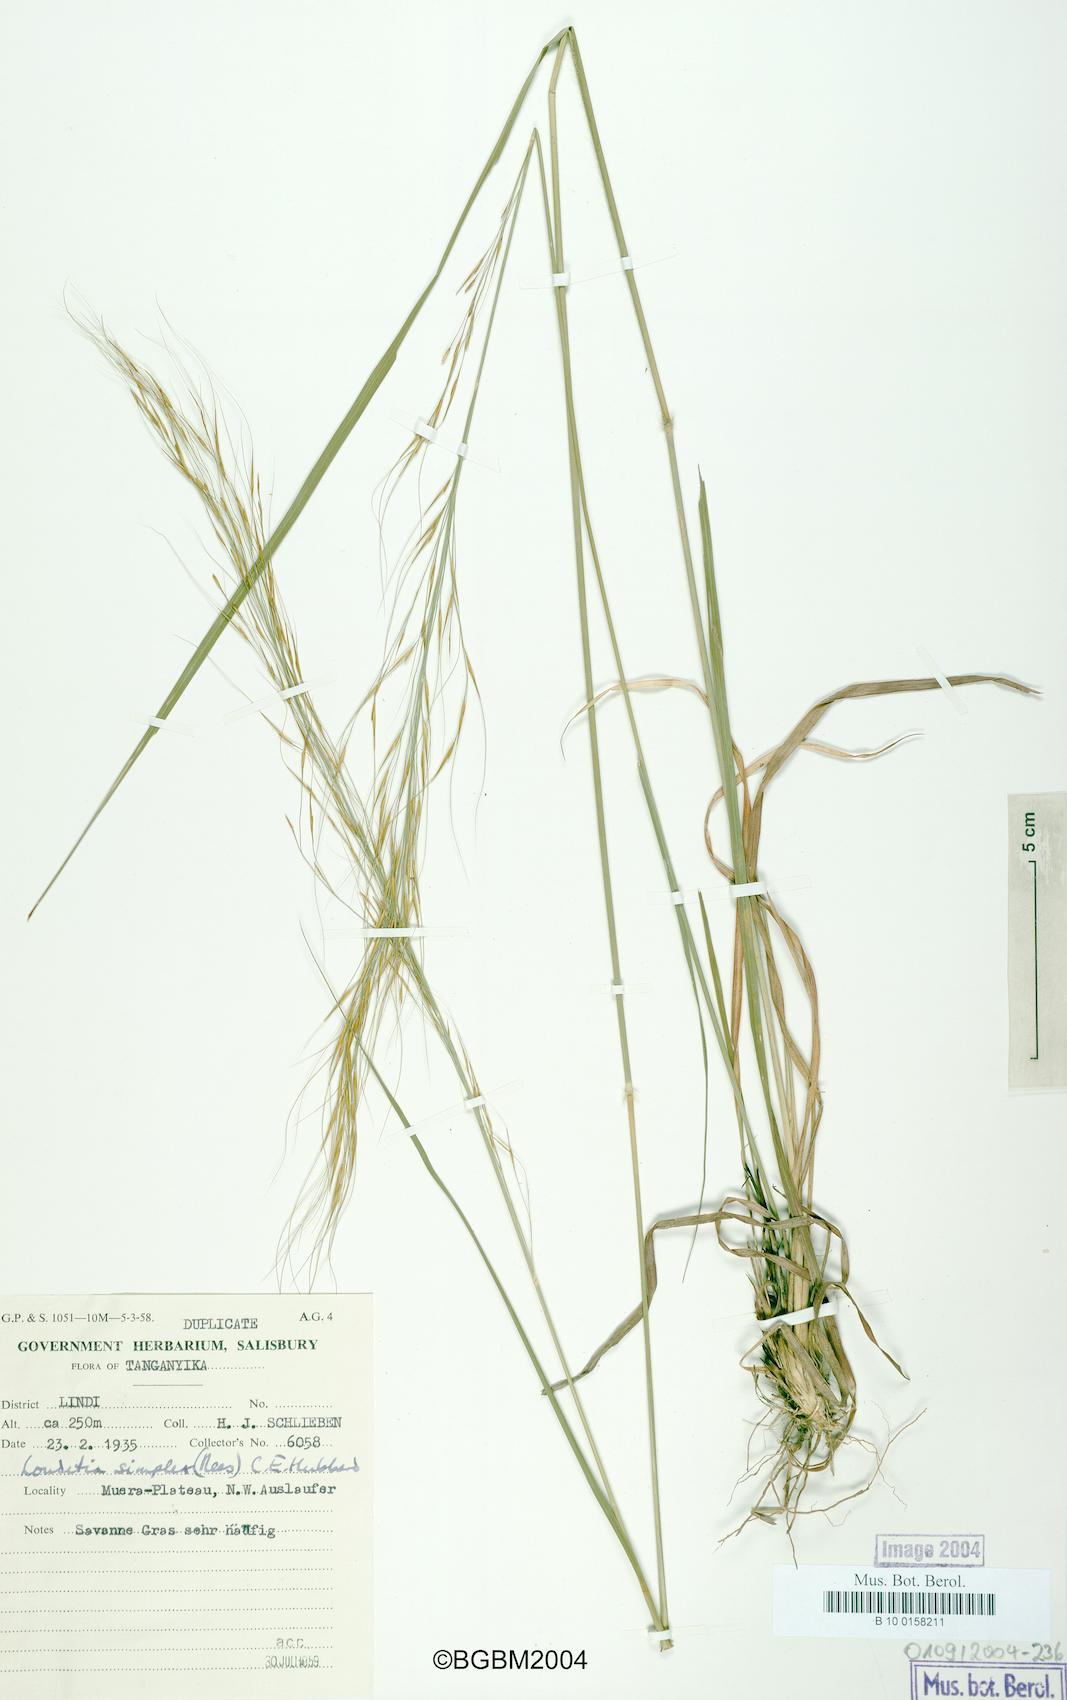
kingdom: Plantae
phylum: Tracheophyta
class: Liliopsida
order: Poales
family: Poaceae
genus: Loudetia
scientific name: Loudetia simplex
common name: Common russet grass
